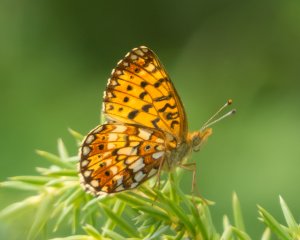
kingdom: Animalia
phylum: Arthropoda
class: Insecta
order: Lepidoptera
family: Nymphalidae
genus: Boloria
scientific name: Boloria selene
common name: Silver-bordered Fritillary
